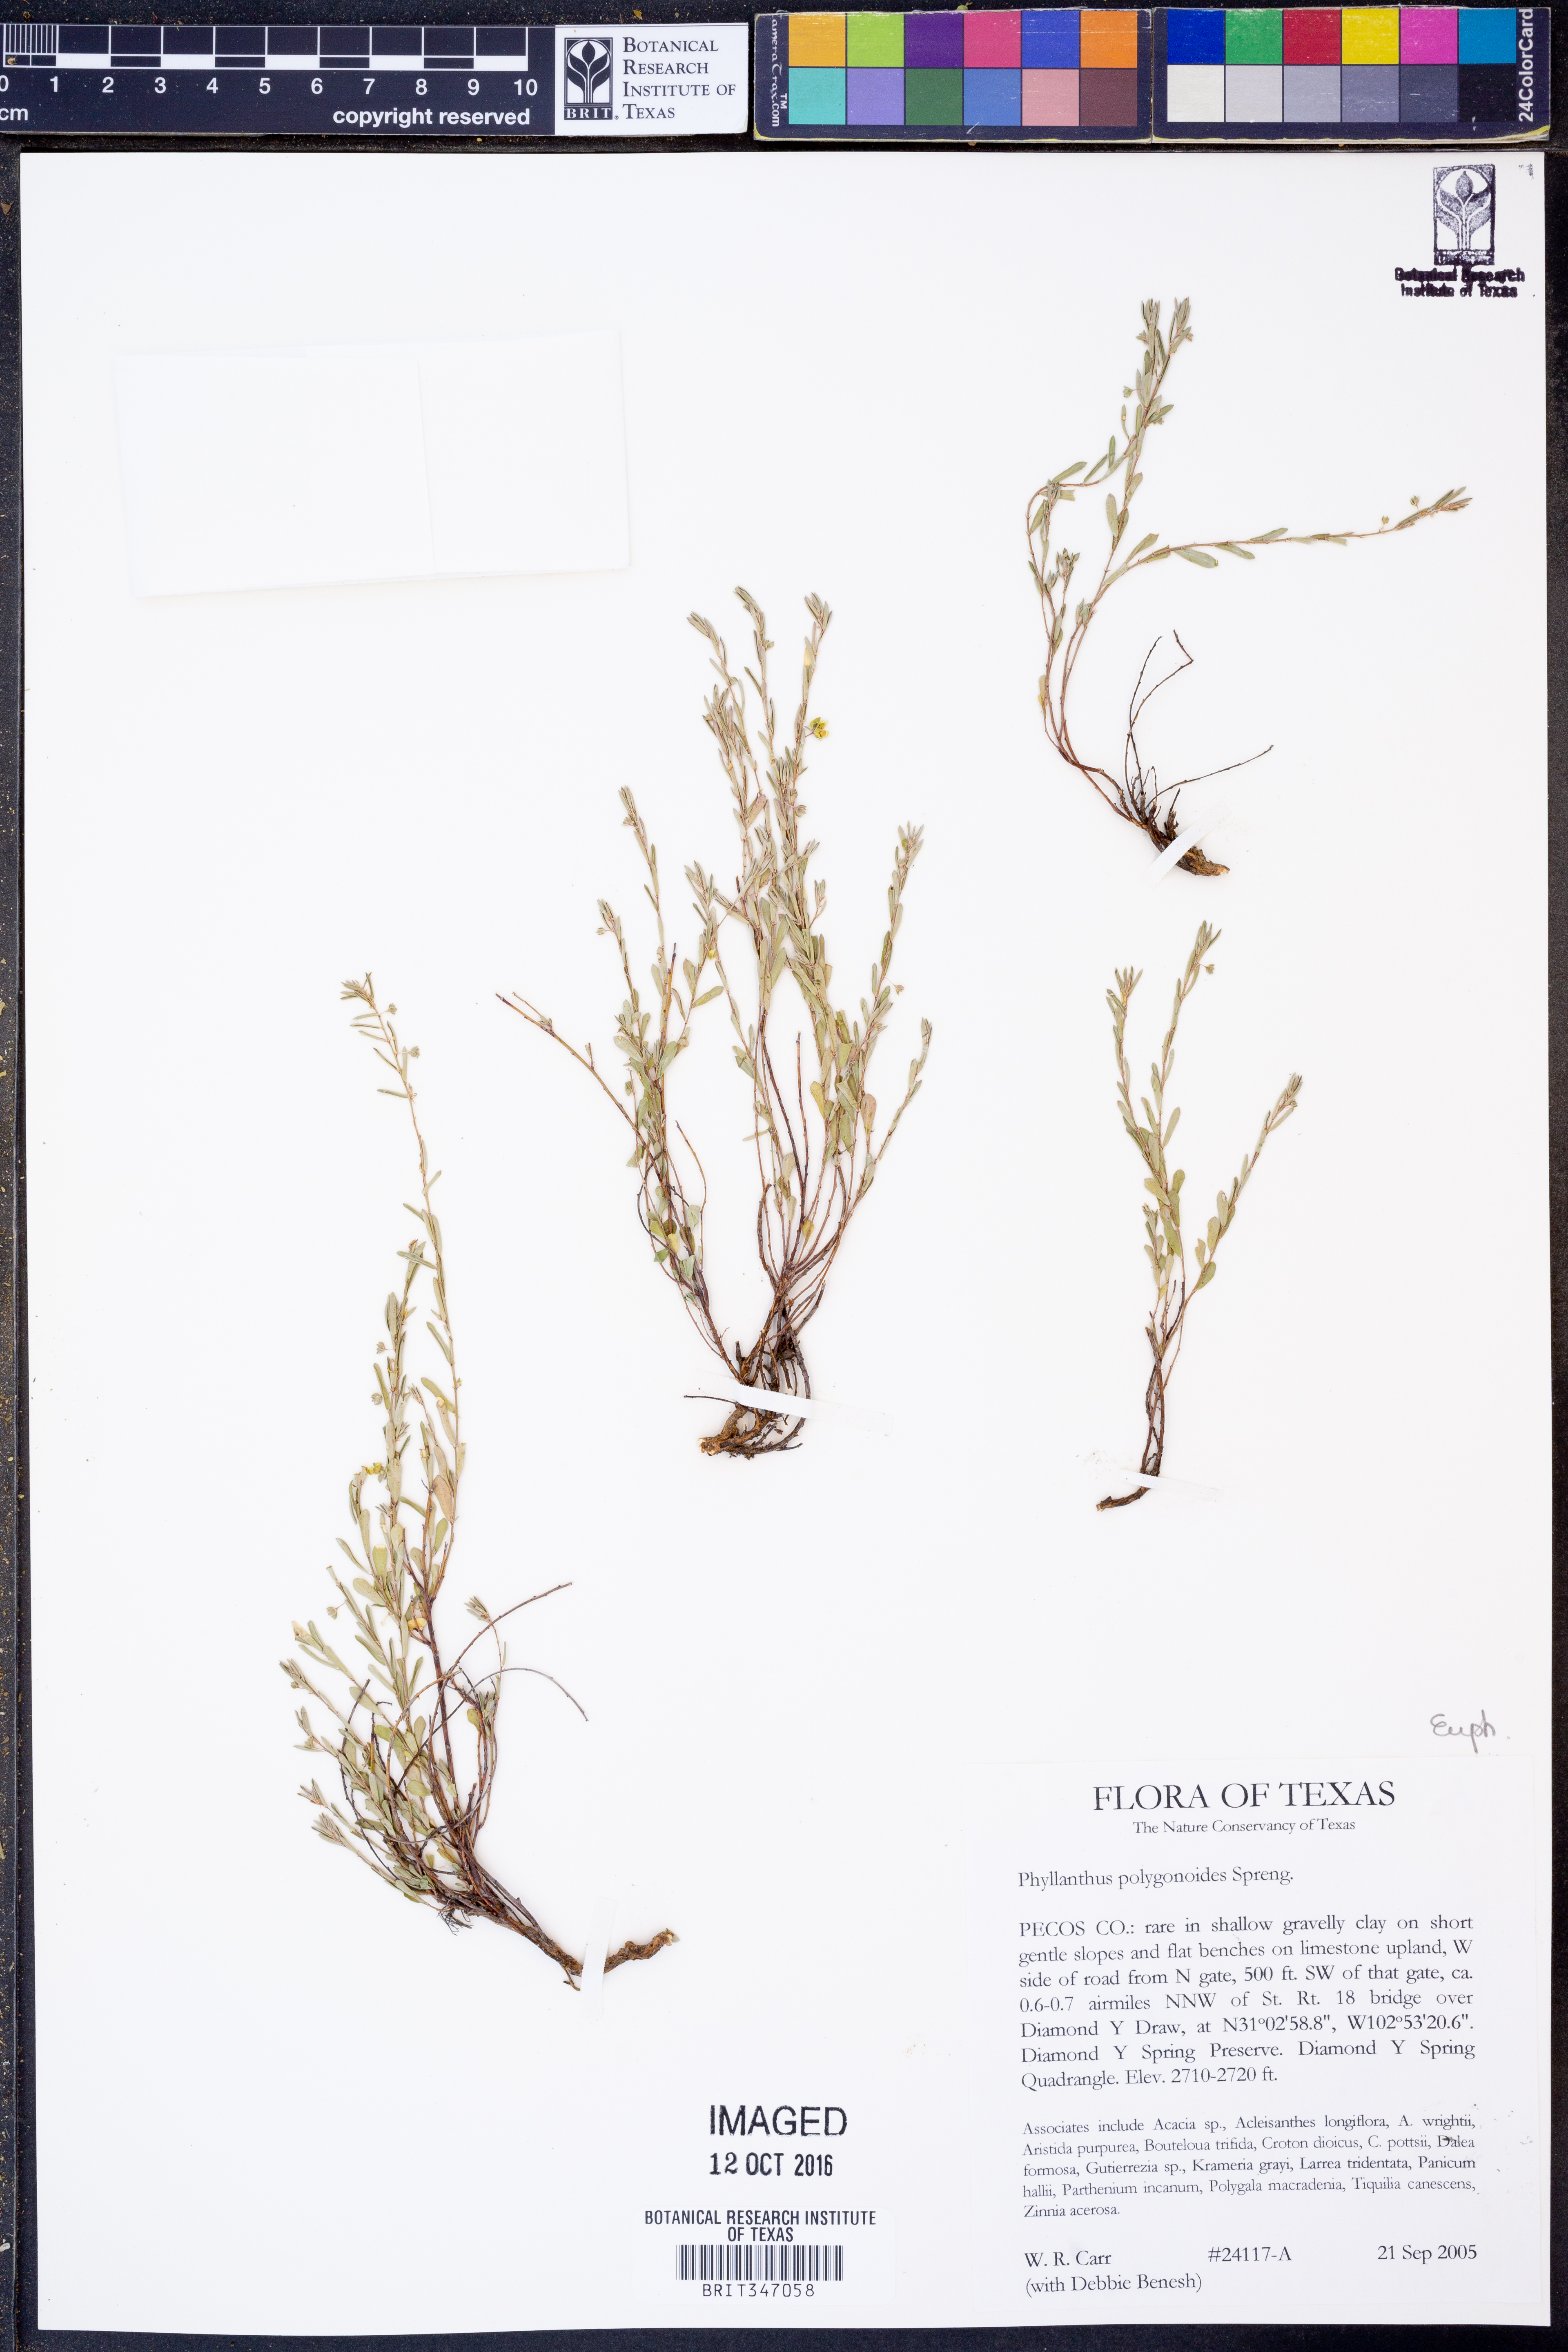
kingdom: Plantae
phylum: Tracheophyta
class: Magnoliopsida
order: Malpighiales
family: Phyllanthaceae
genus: Phyllanthus
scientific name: Phyllanthus polygonoides
